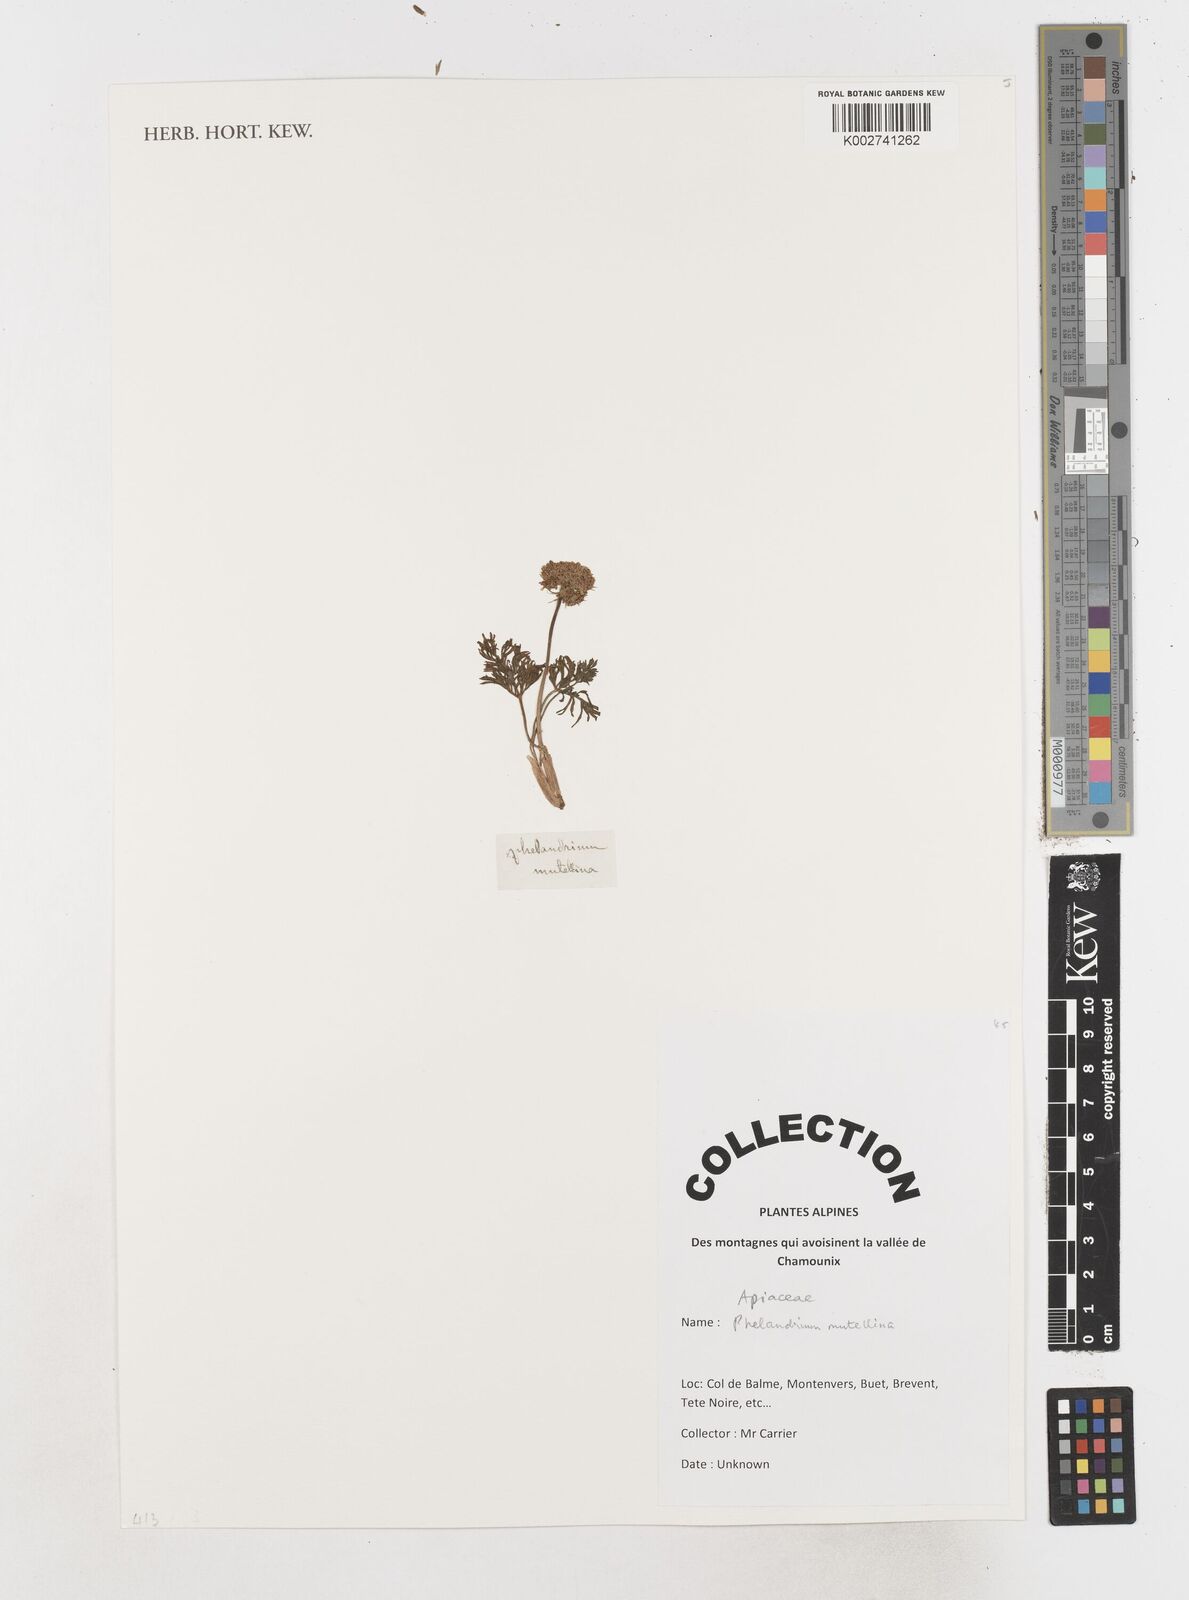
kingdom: Plantae
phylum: Tracheophyta
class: Magnoliopsida
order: Apiales
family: Apiaceae
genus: Mutellina
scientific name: Mutellina adonidifolia
